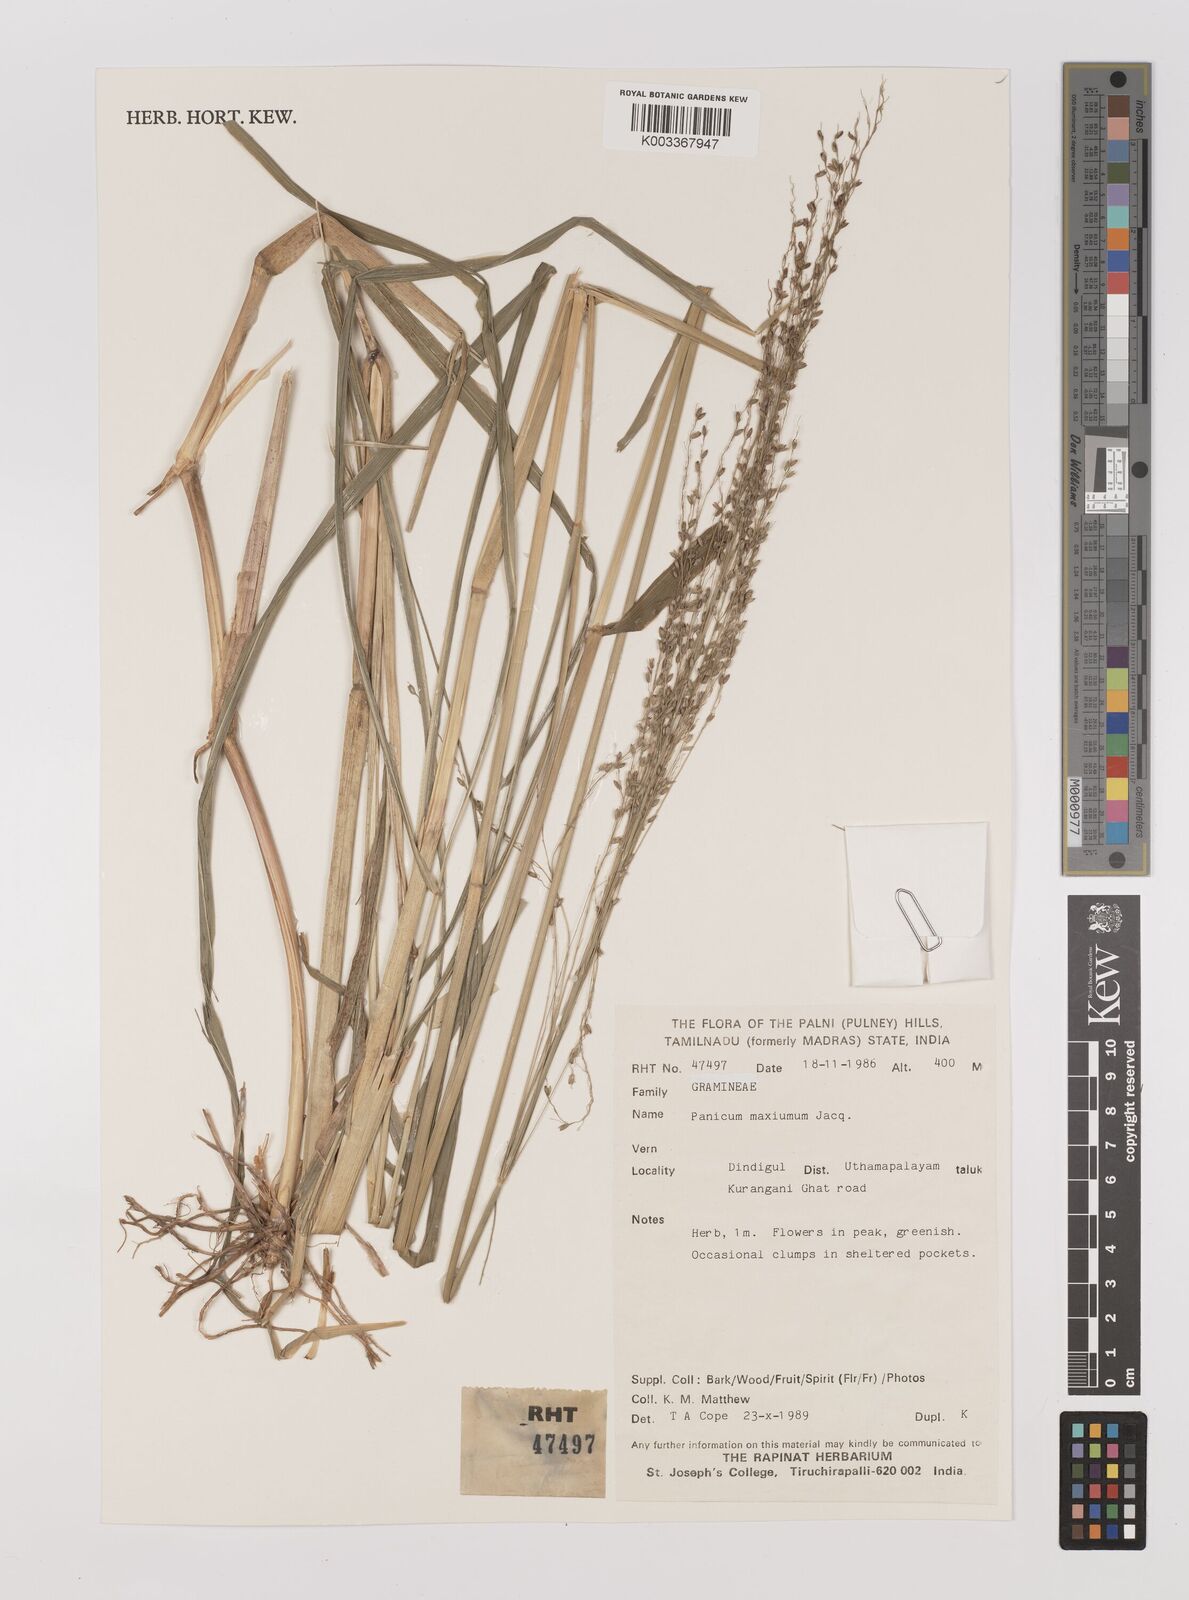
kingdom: Plantae
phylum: Tracheophyta
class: Liliopsida
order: Poales
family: Poaceae
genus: Megathyrsus
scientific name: Megathyrsus maximus
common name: Guineagrass
